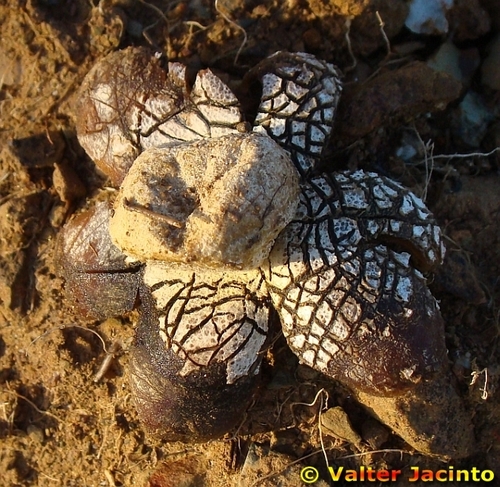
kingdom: Fungi
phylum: Basidiomycota
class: Agaricomycetes
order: Boletales
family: Diplocystidiaceae
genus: Astraeus
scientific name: Astraeus hygrometricus
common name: Barometer earthstar
